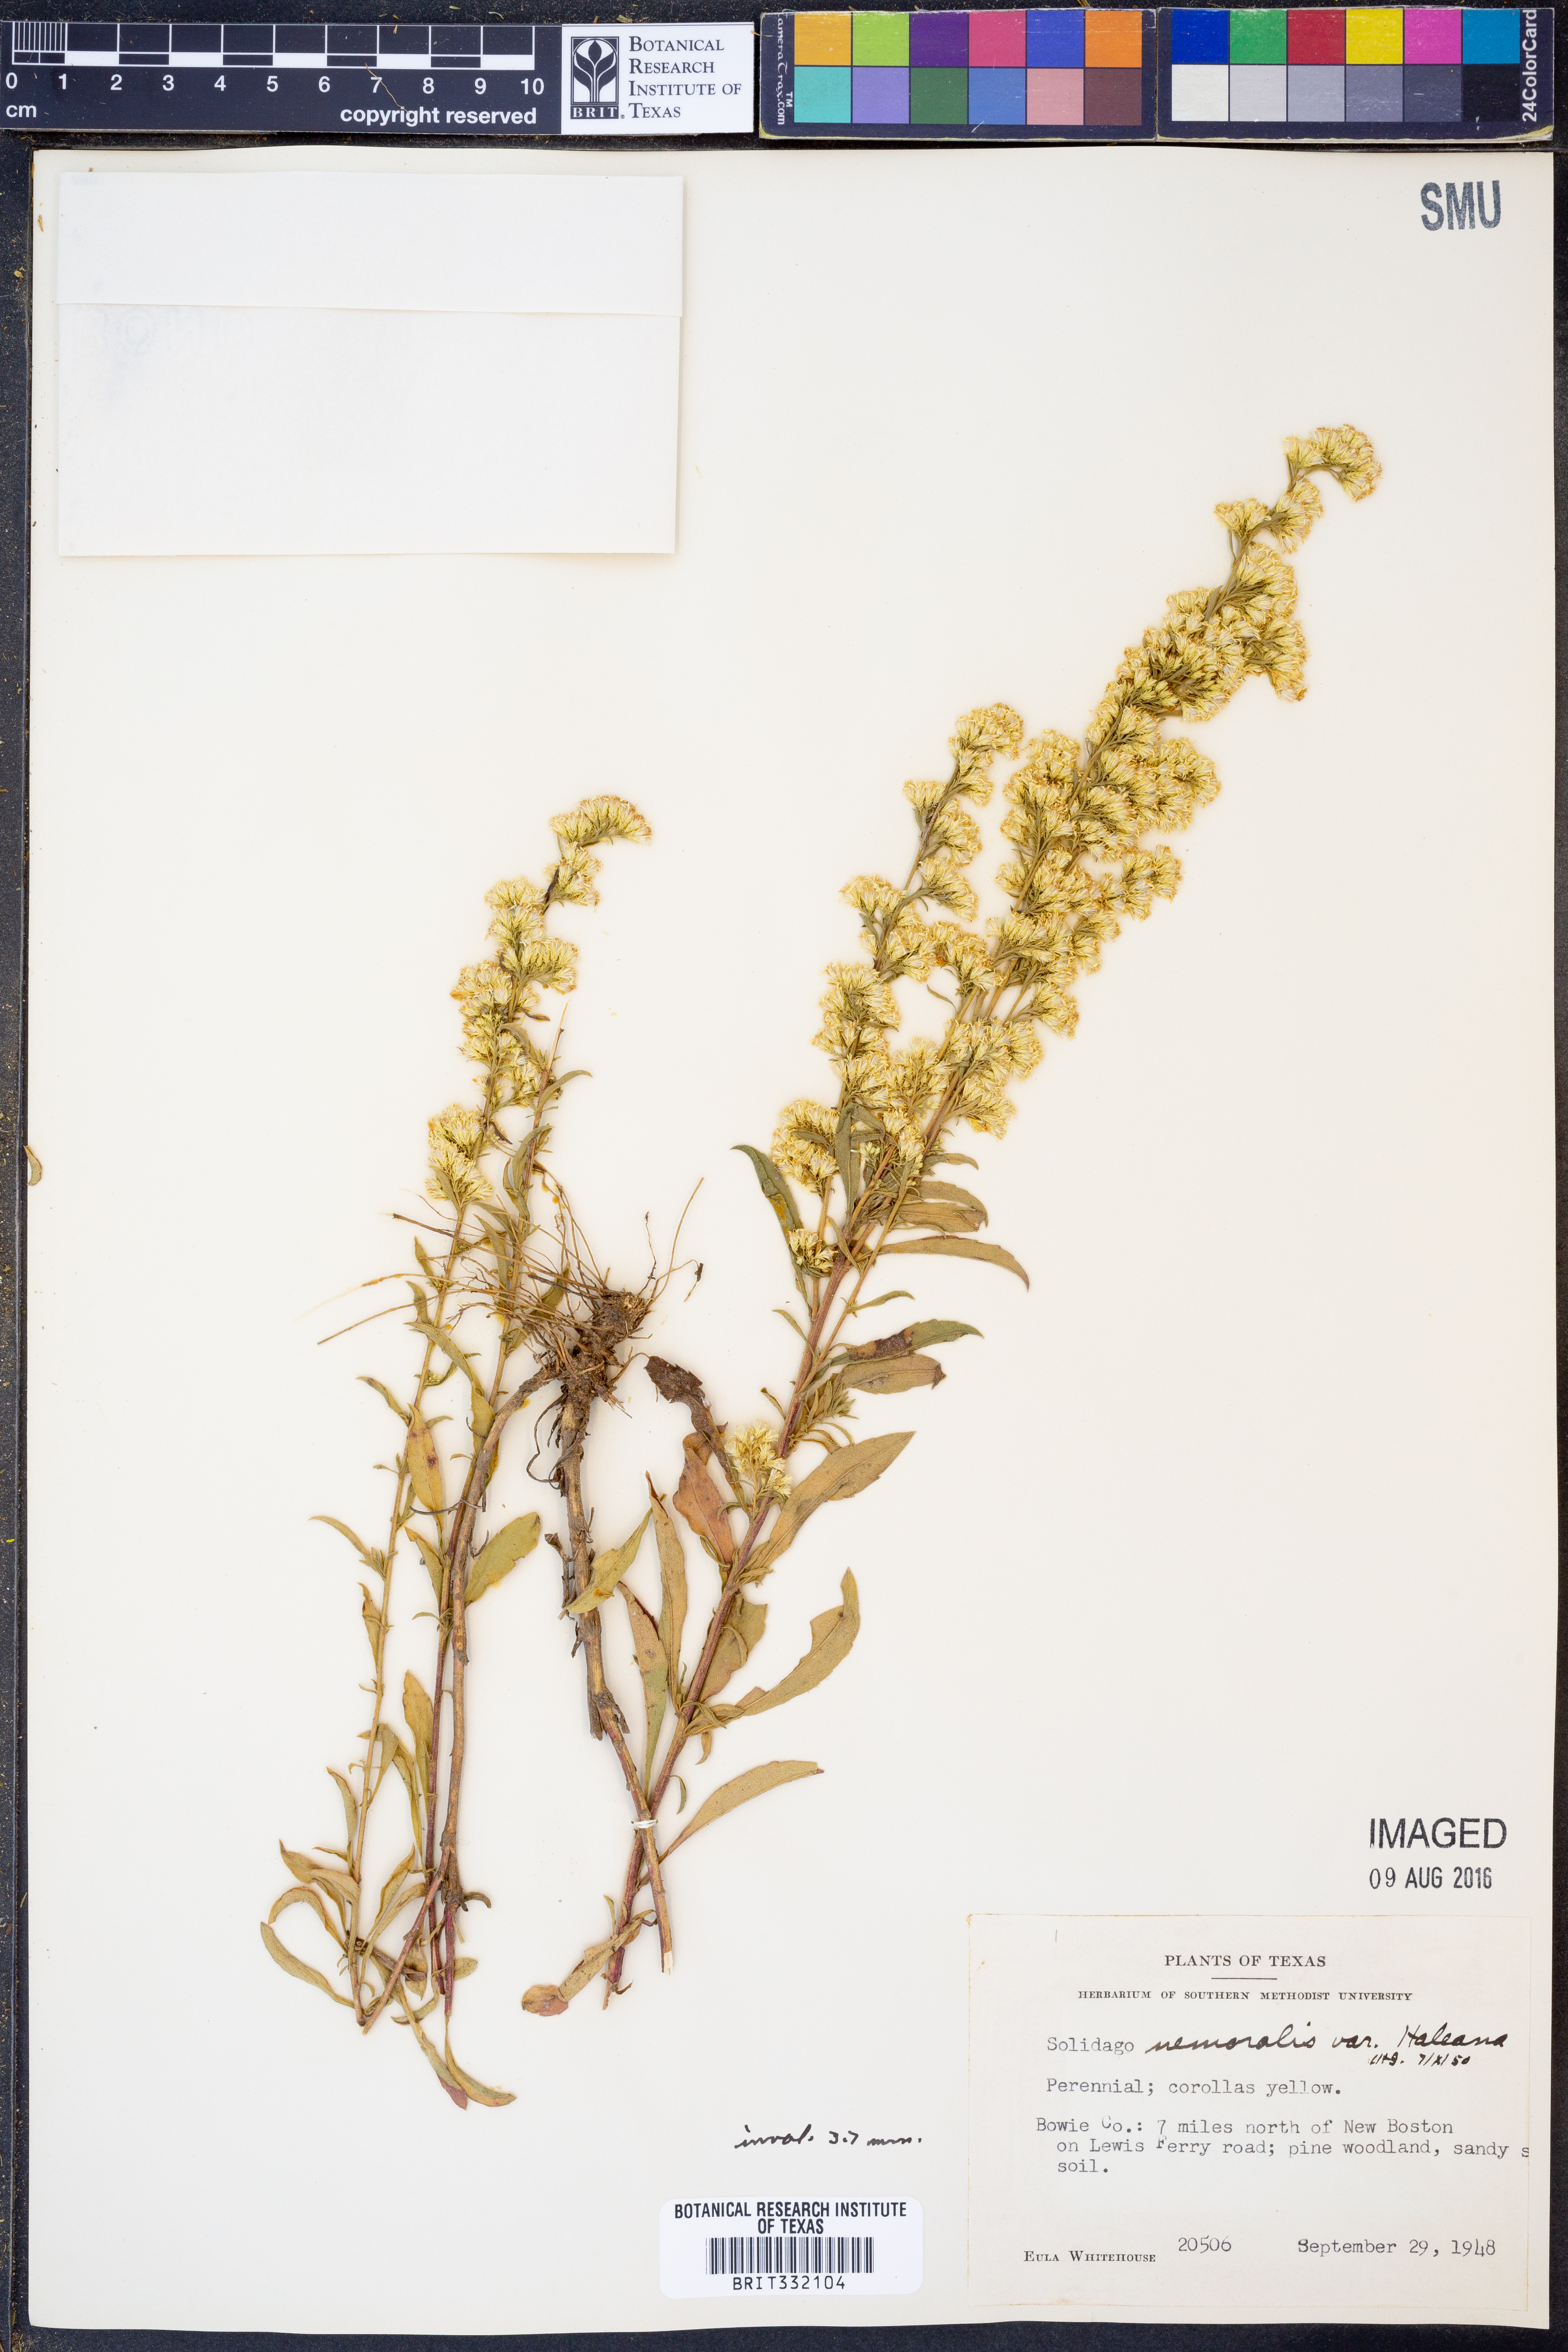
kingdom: Plantae
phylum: Tracheophyta
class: Magnoliopsida
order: Asterales
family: Asteraceae
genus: Solidago
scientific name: Solidago nemoralis
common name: Grey goldenrod
